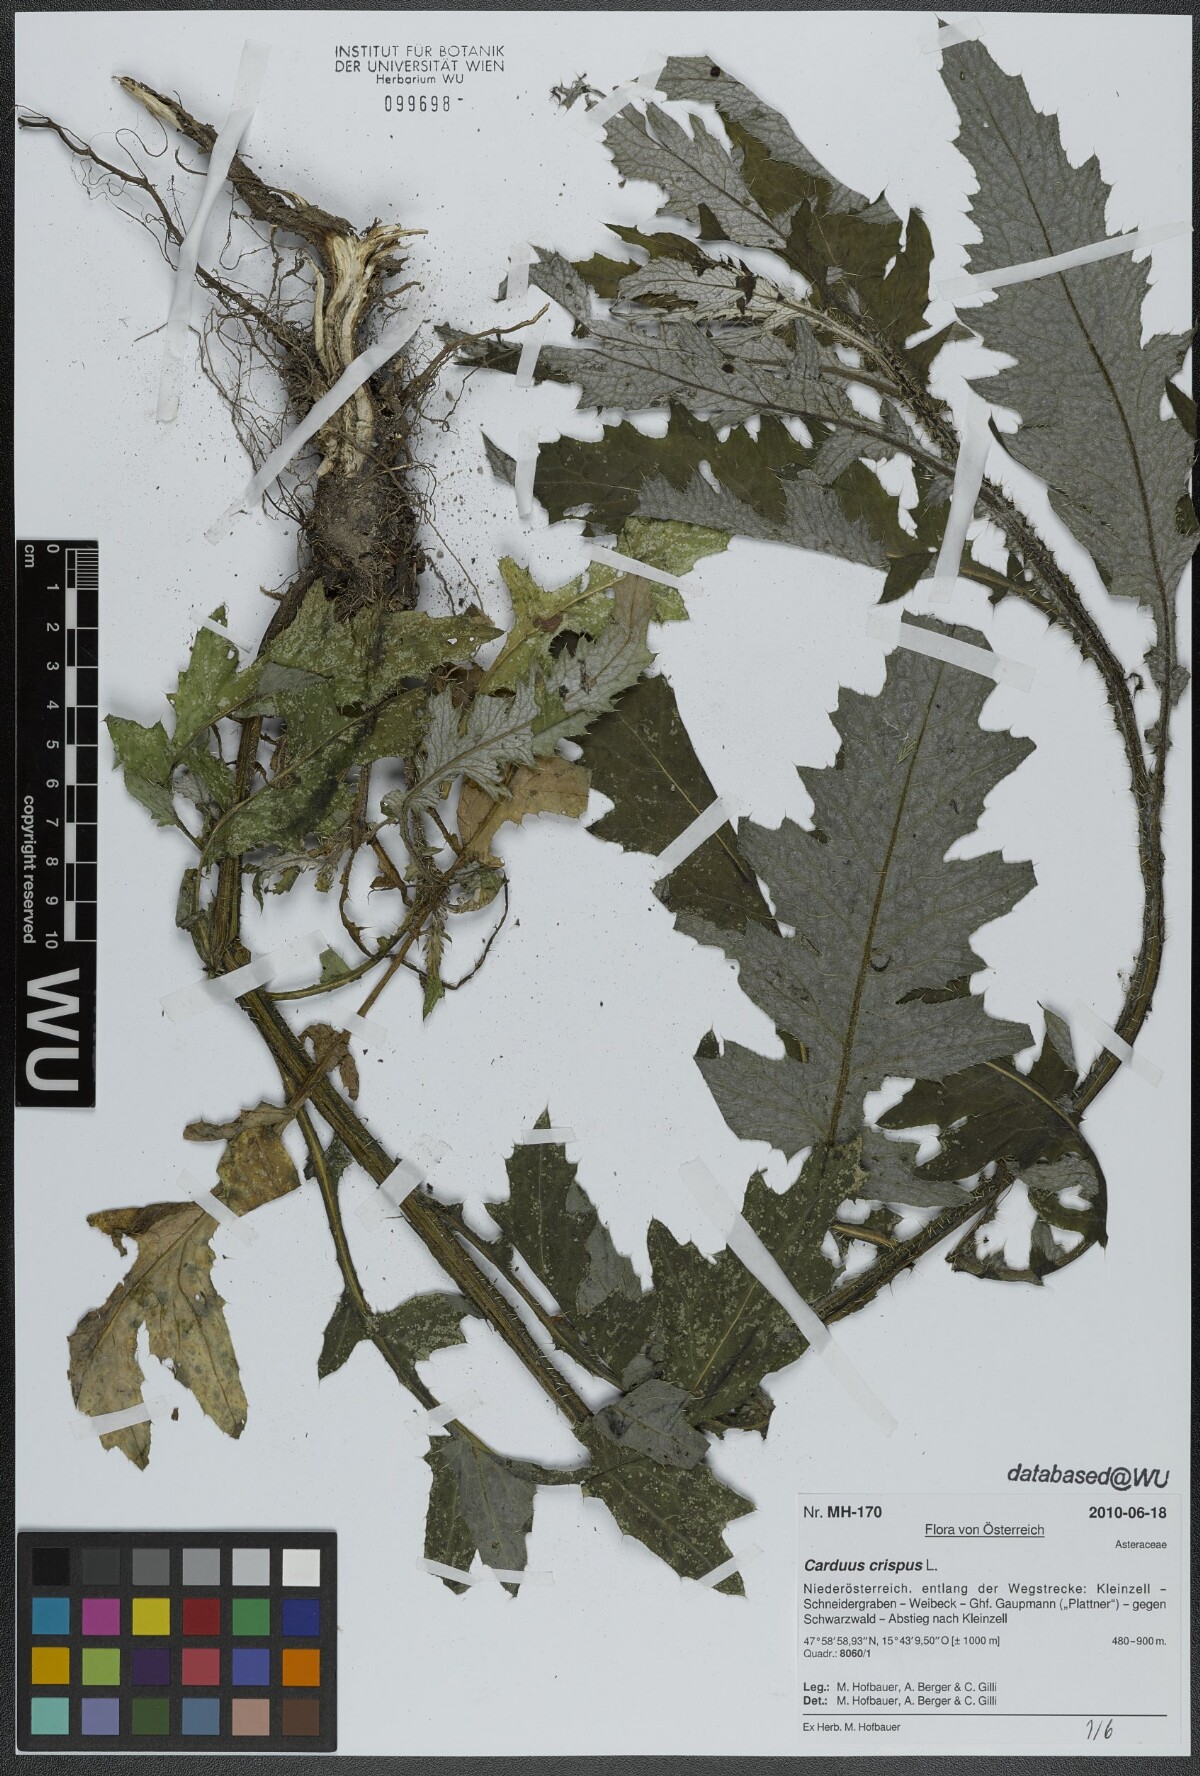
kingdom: Plantae
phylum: Tracheophyta
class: Magnoliopsida
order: Asterales
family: Asteraceae
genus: Carduus
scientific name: Carduus crispus
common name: Welted thistle
